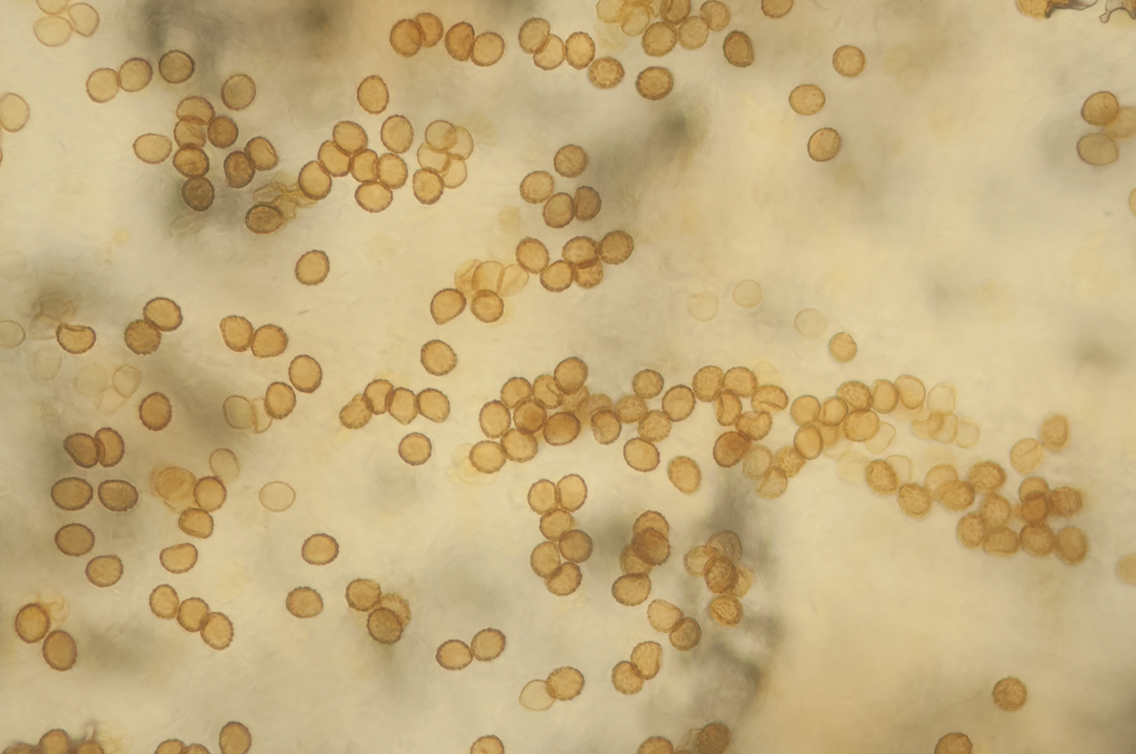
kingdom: Fungi
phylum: Basidiomycota
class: Agaricomycetes
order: Agaricales
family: Cortinariaceae
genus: Phlegmacium
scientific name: Phlegmacium caesiocortinatum
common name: rundsporet slørhat
